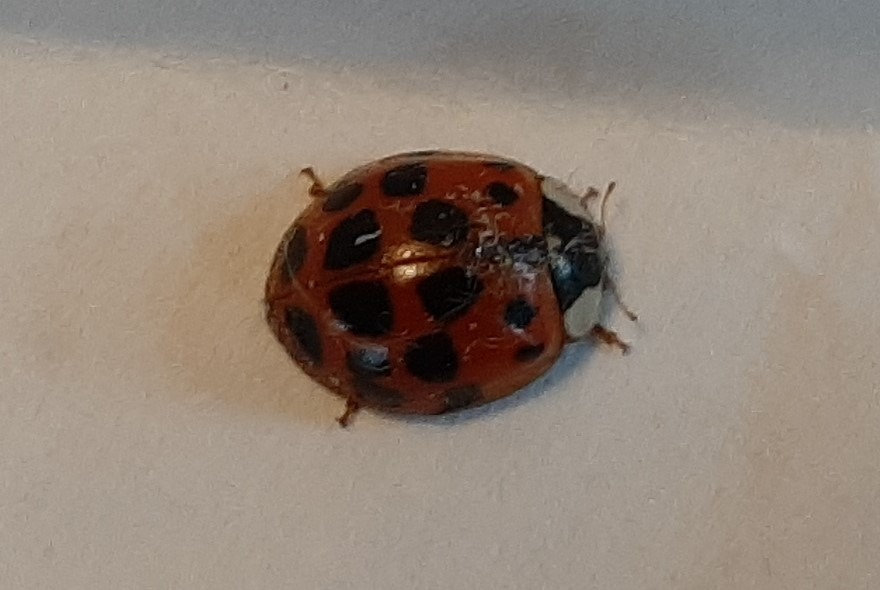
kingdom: Animalia
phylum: Arthropoda
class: Insecta
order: Coleoptera
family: Coccinellidae
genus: Harmonia
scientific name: Harmonia axyridis
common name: Harlekinmariehøne
